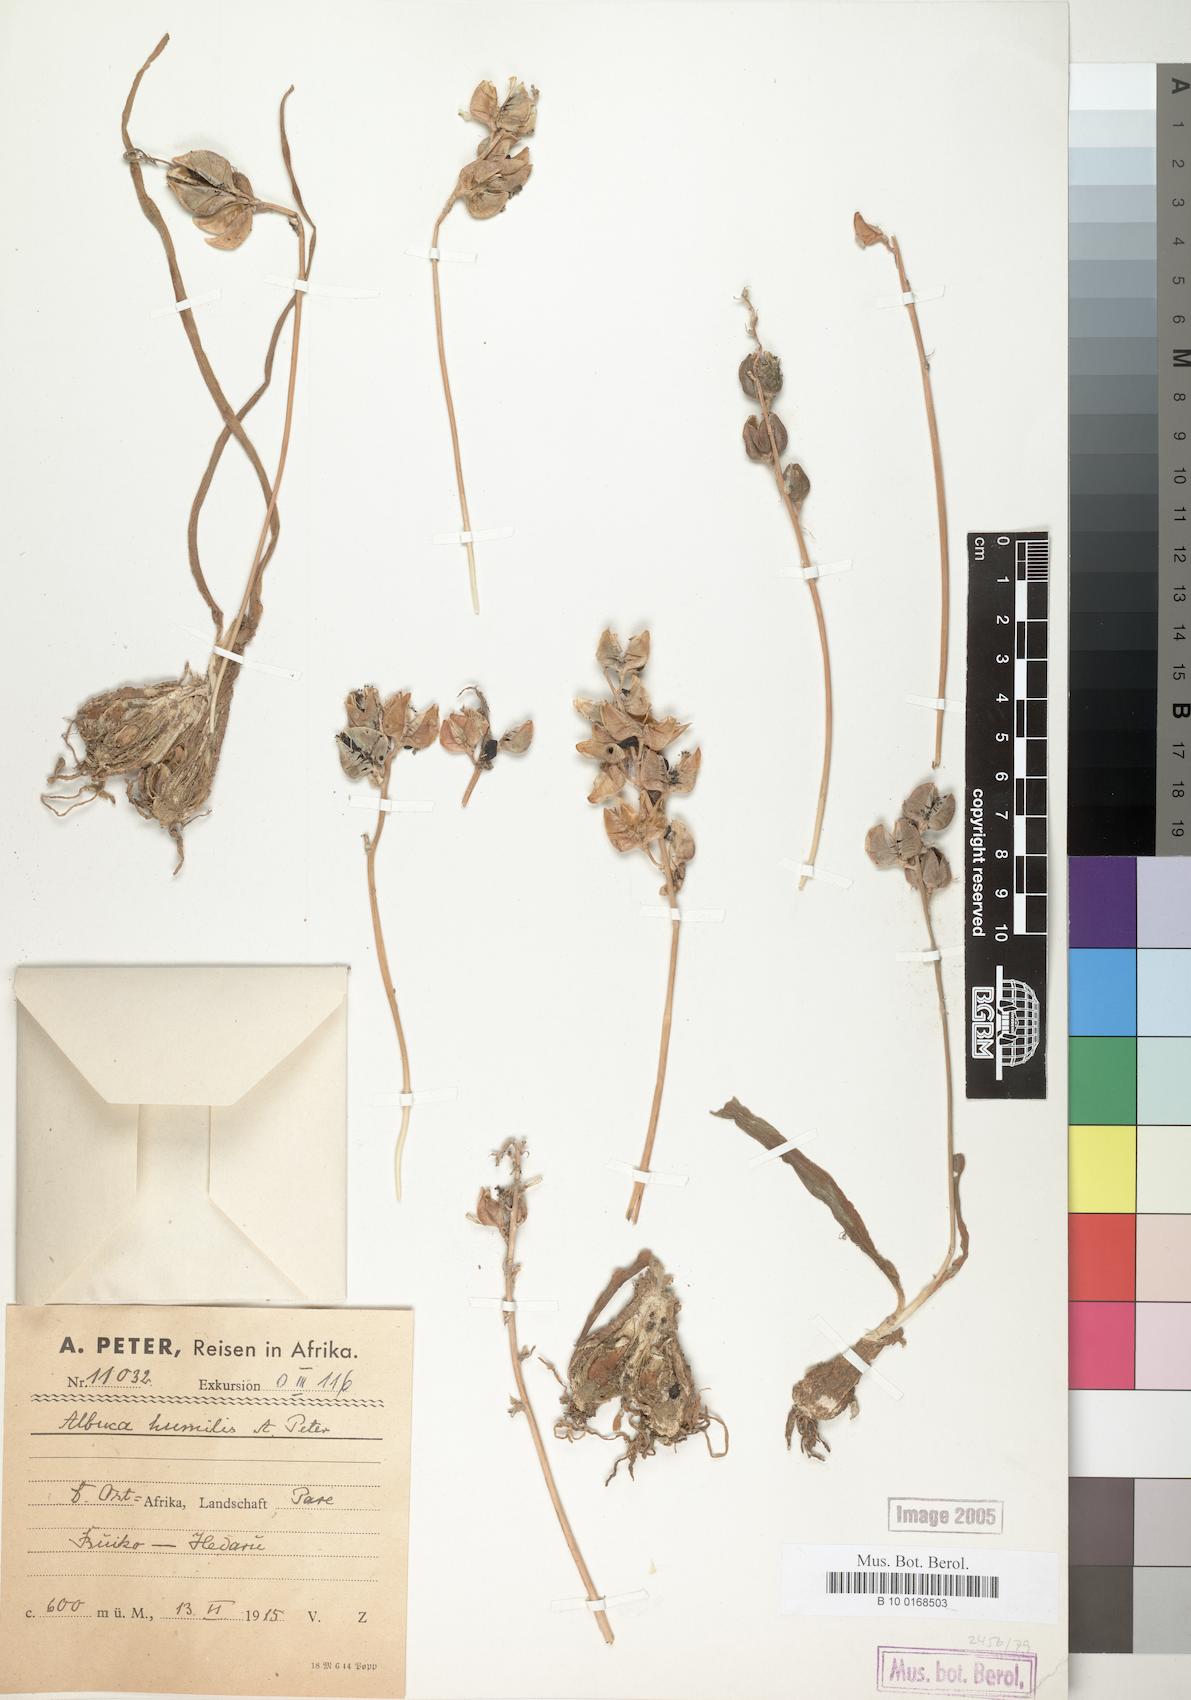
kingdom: Plantae
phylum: Tracheophyta
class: Liliopsida
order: Asparagales
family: Asparagaceae
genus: Albuca
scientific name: Albuca humilis
